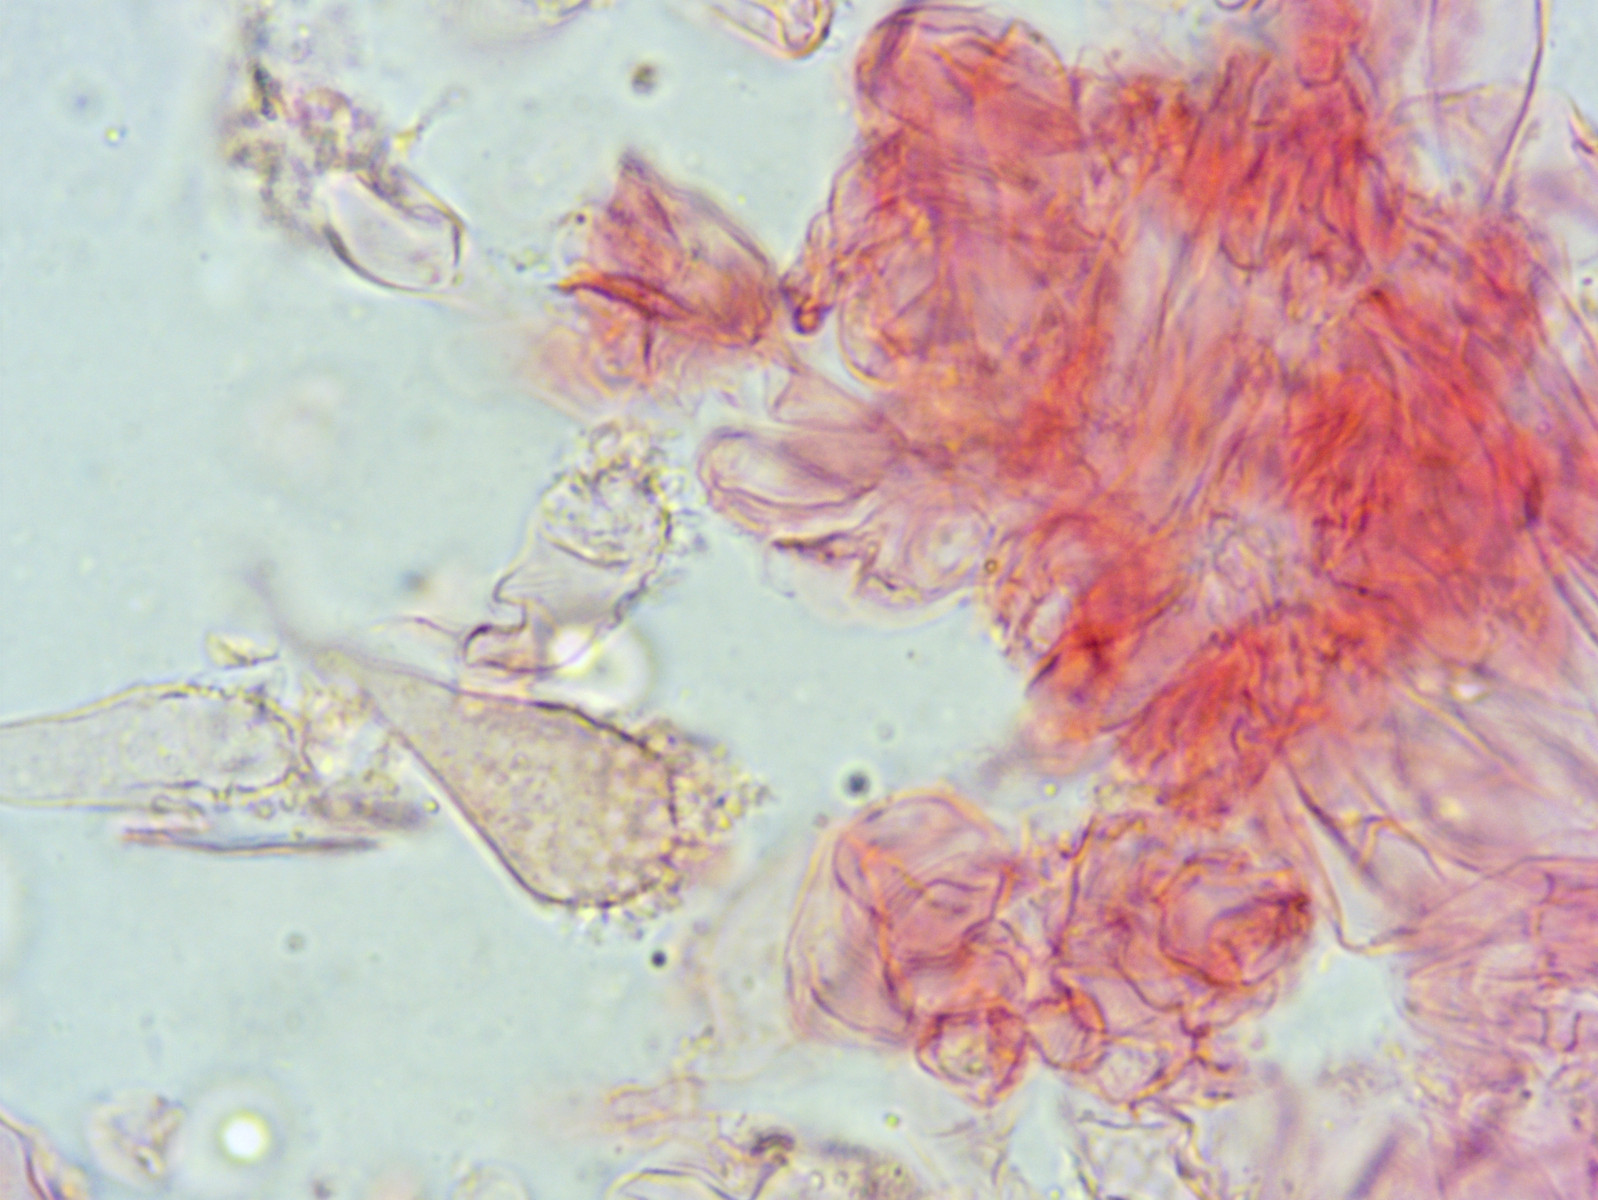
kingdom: Fungi
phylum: Basidiomycota
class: Agaricomycetes
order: Agaricales
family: Mycenaceae
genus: Mycena
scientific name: Mycena pseudocorticola
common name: gråblå bark-huesvamp
